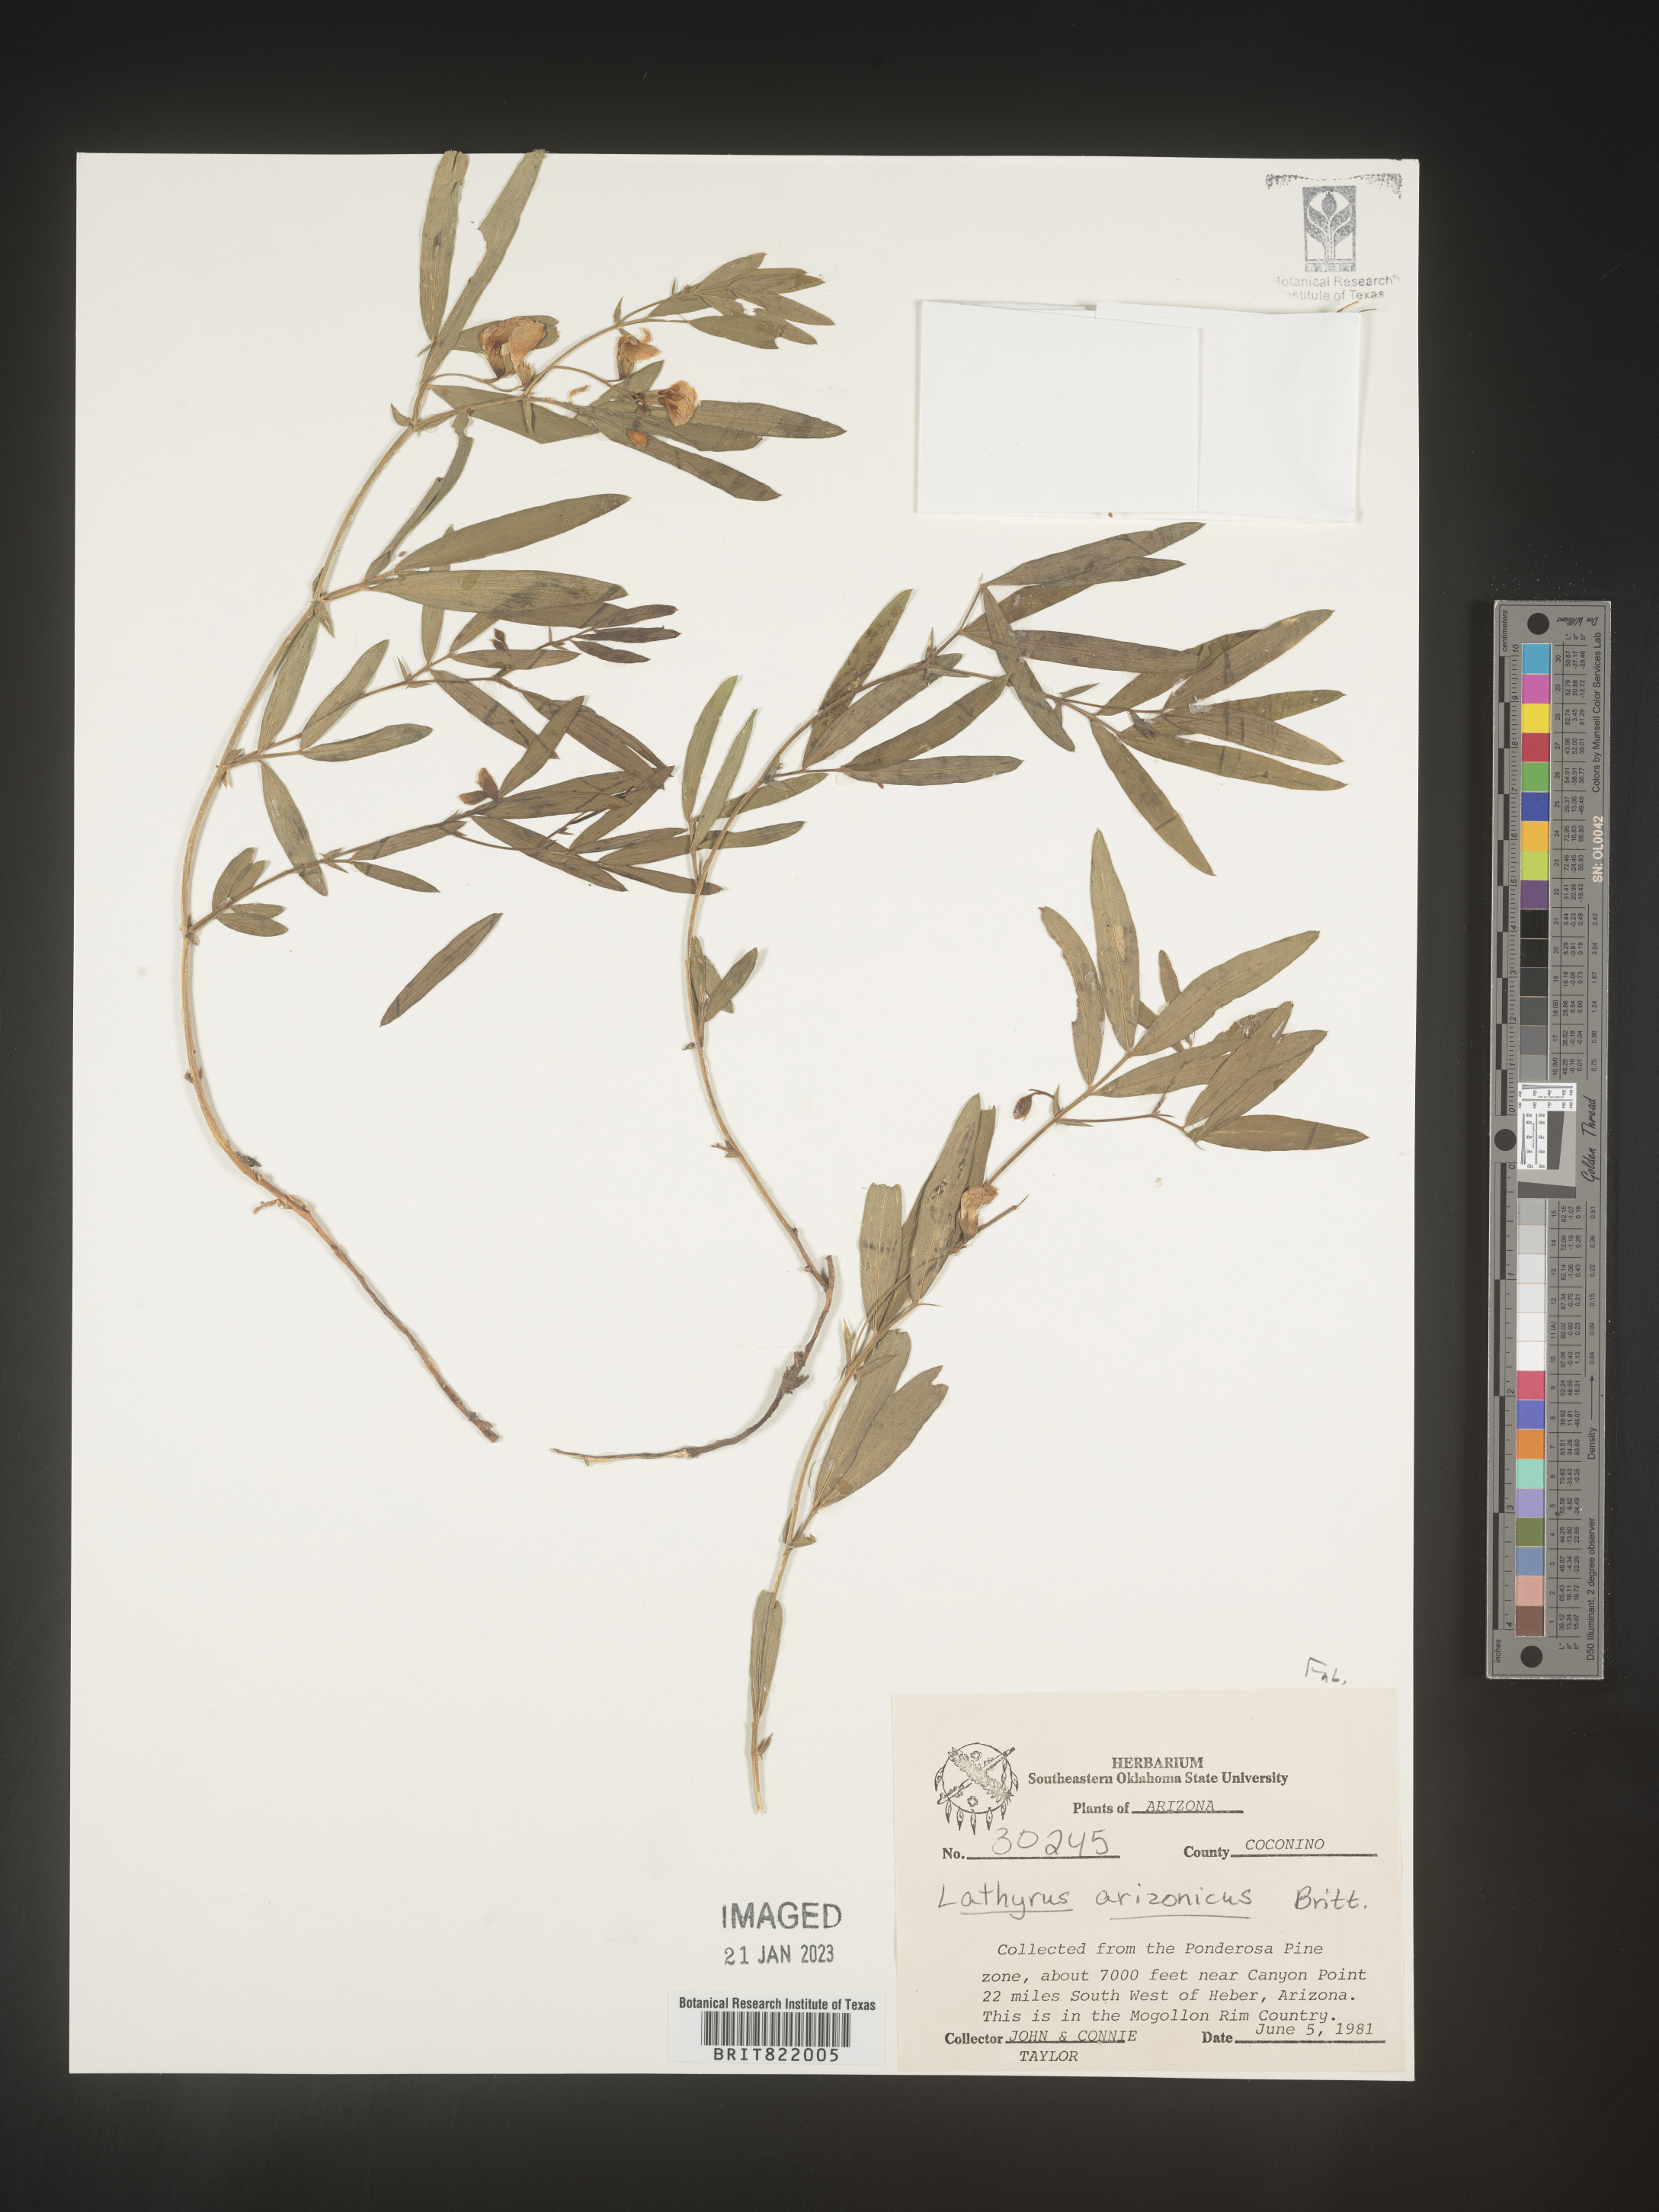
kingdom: Plantae
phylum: Tracheophyta
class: Magnoliopsida
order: Fabales
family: Fabaceae
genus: Lathyrus
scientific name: Lathyrus
